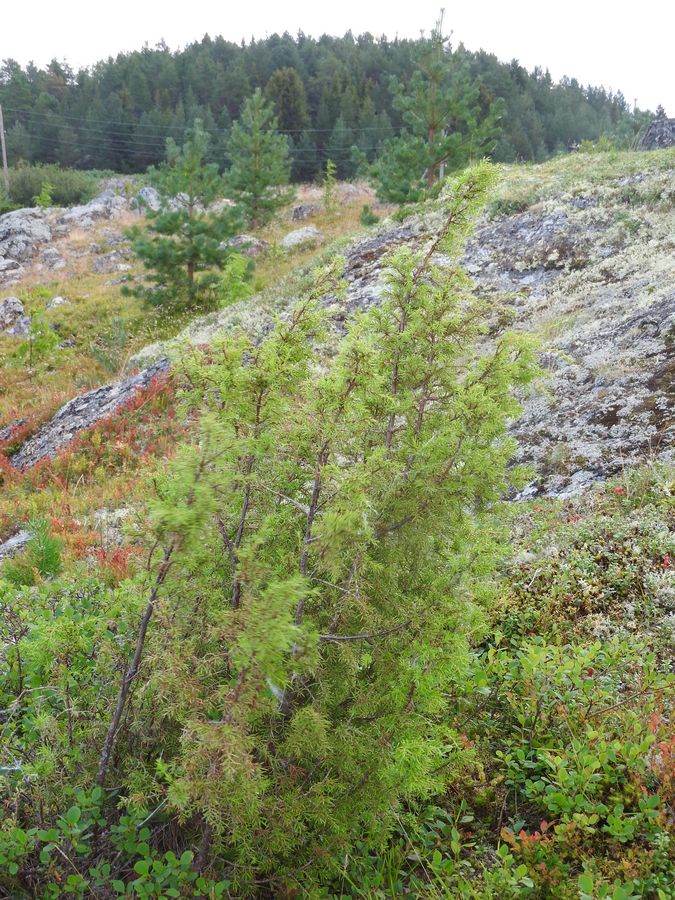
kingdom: Plantae
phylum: Tracheophyta
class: Pinopsida
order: Pinales
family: Cupressaceae
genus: Juniperus
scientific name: Juniperus communis
